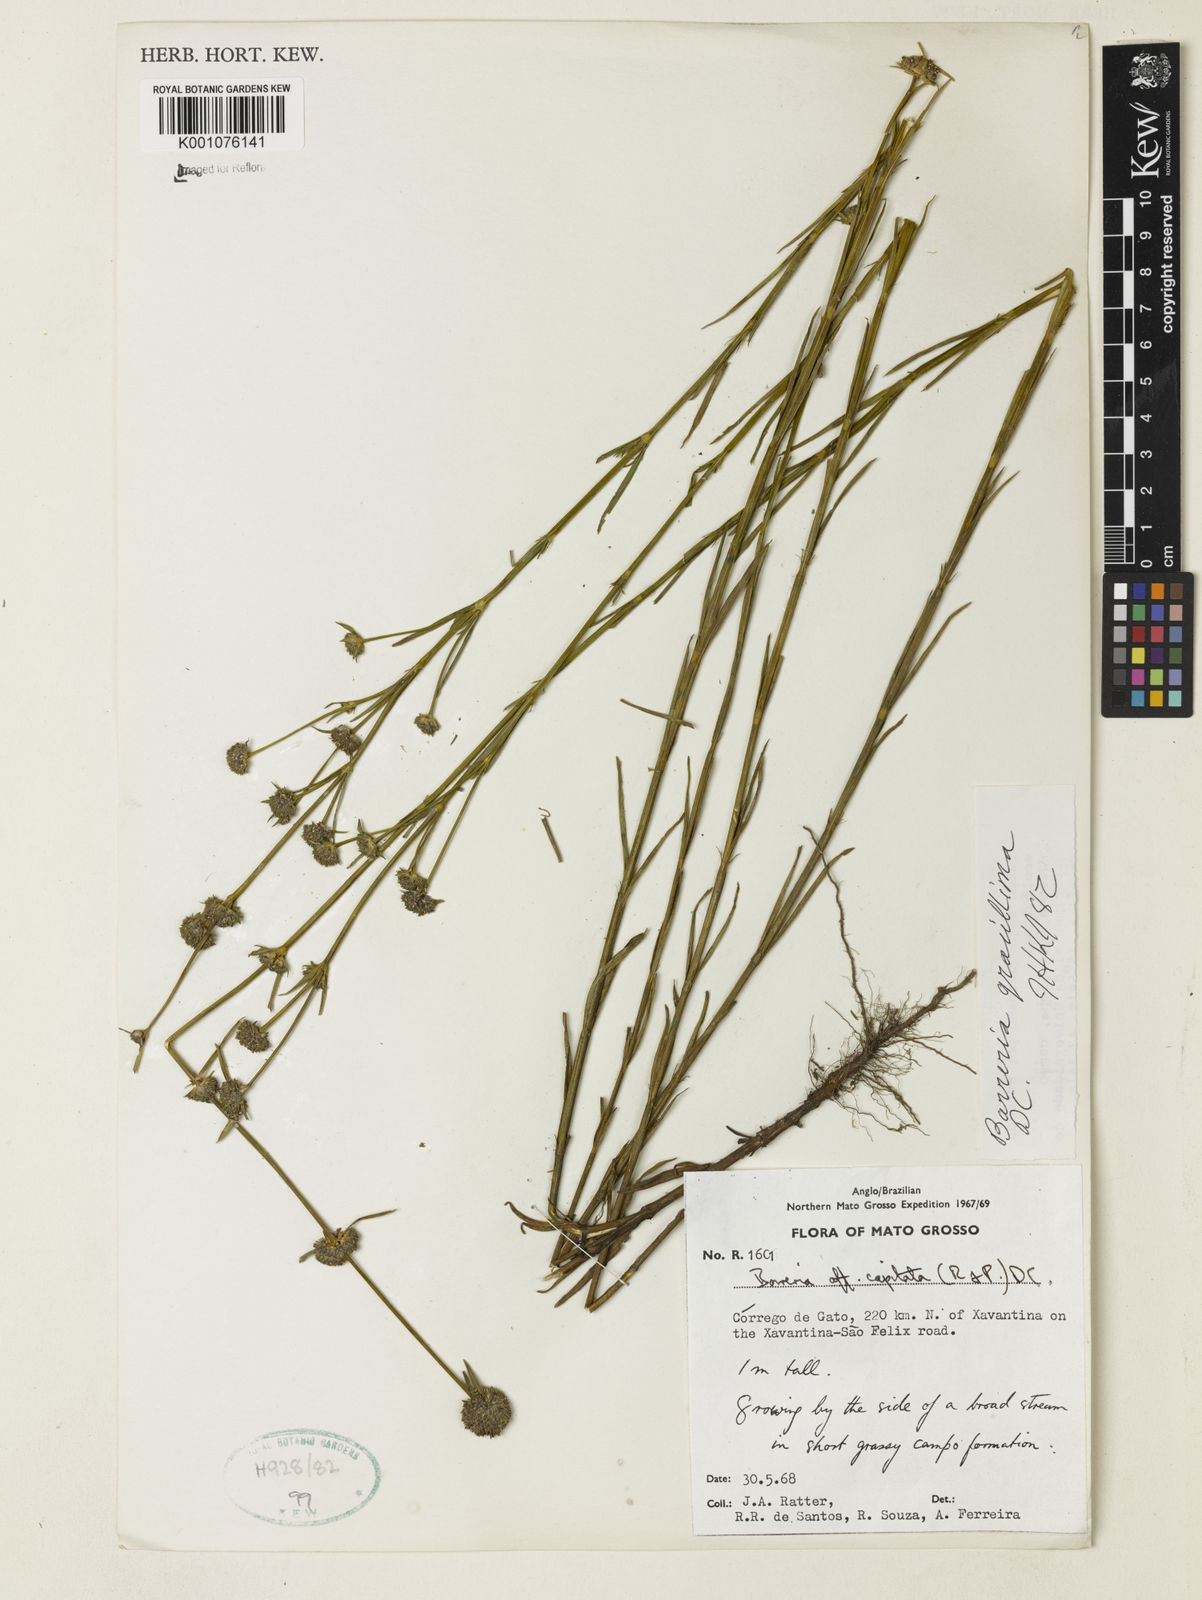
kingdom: Plantae
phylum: Tracheophyta
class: Magnoliopsida
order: Gentianales
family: Rubiaceae
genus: Spermacoce
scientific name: Spermacoce gracillima
